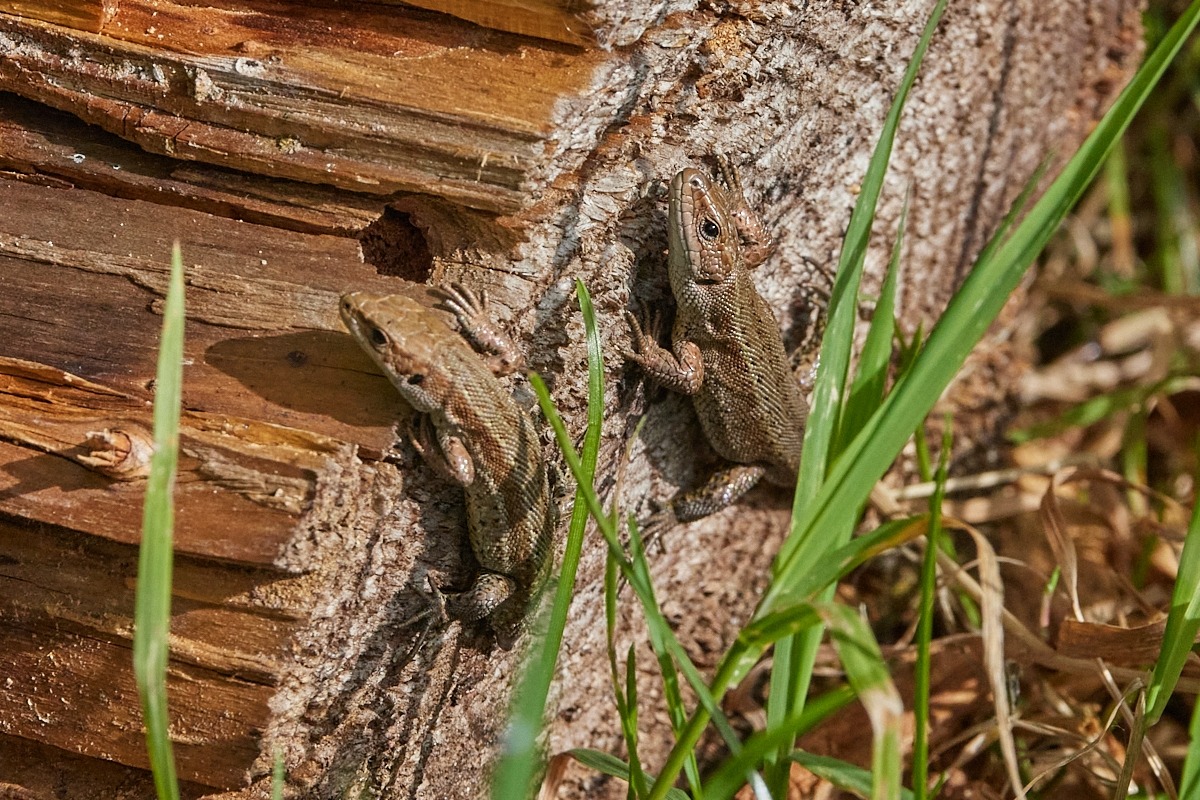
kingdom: Animalia
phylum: Chordata
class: Squamata
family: Lacertidae
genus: Zootoca
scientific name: Zootoca vivipara
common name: Skovfirben
